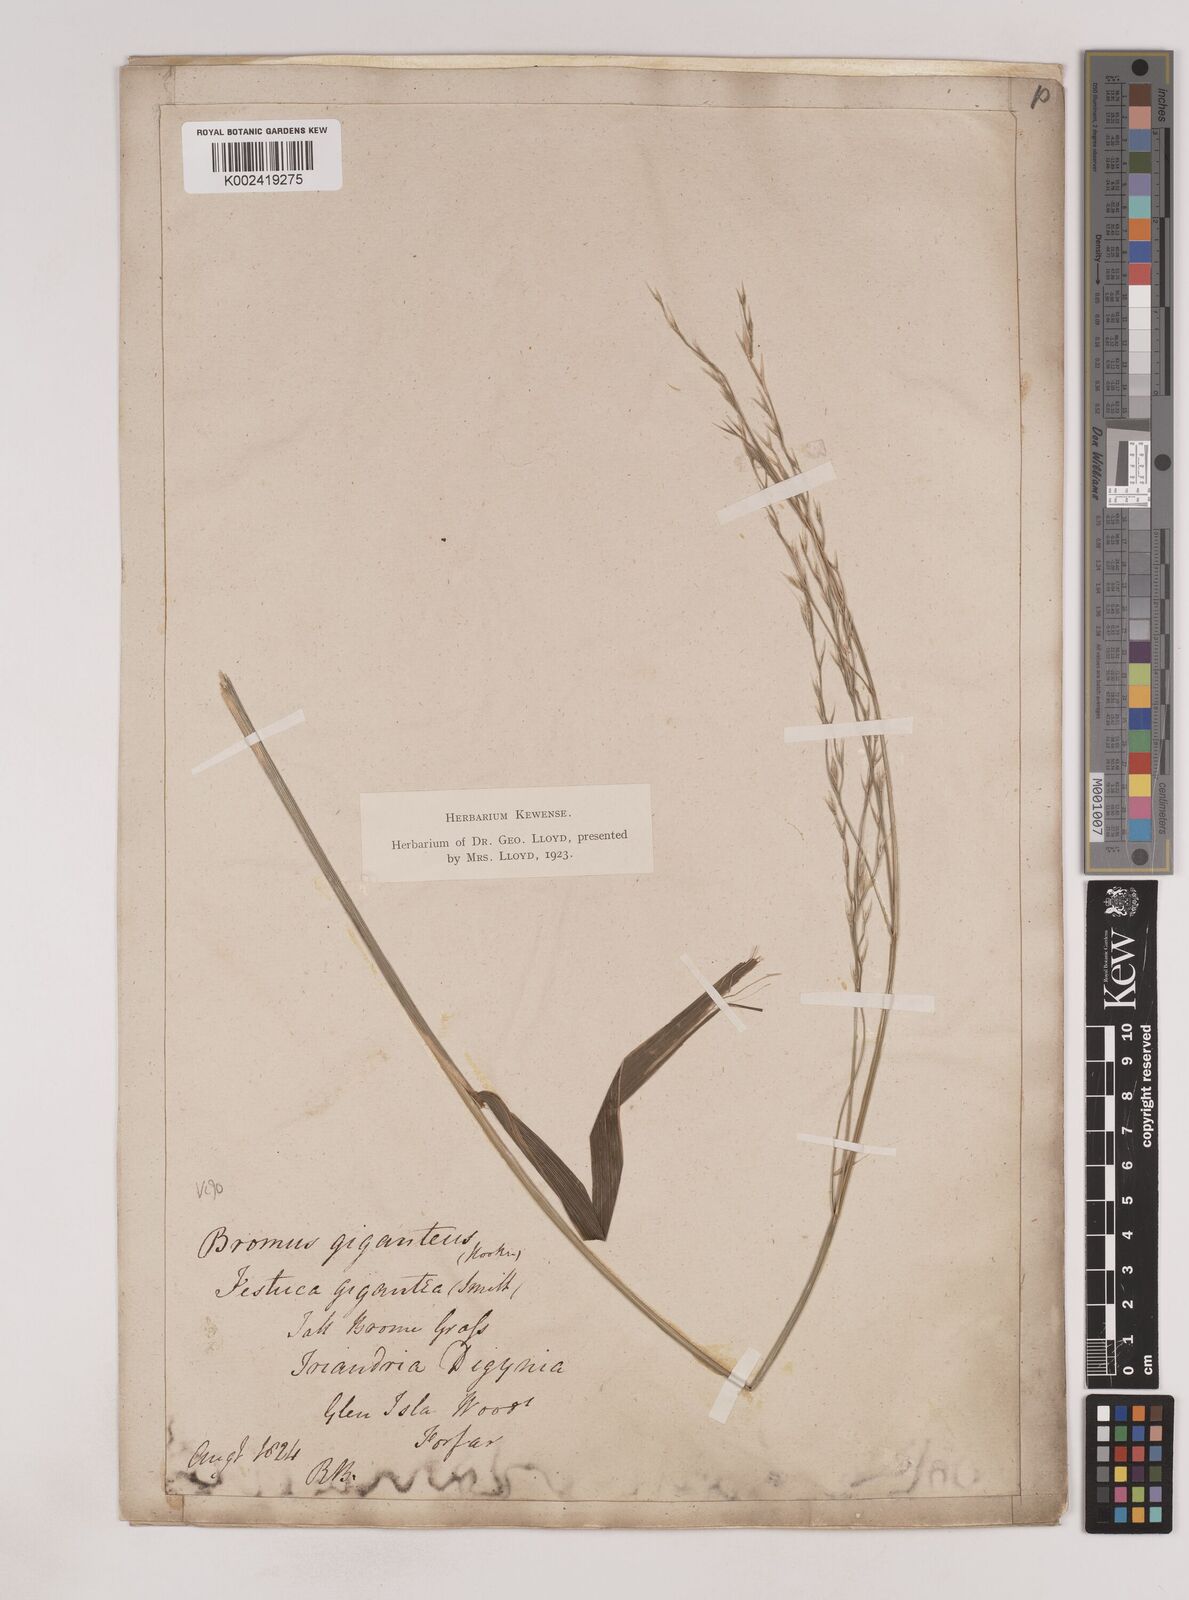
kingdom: Plantae
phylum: Tracheophyta
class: Liliopsida
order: Poales
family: Poaceae
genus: Patzkea
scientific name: Patzkea paniculata
